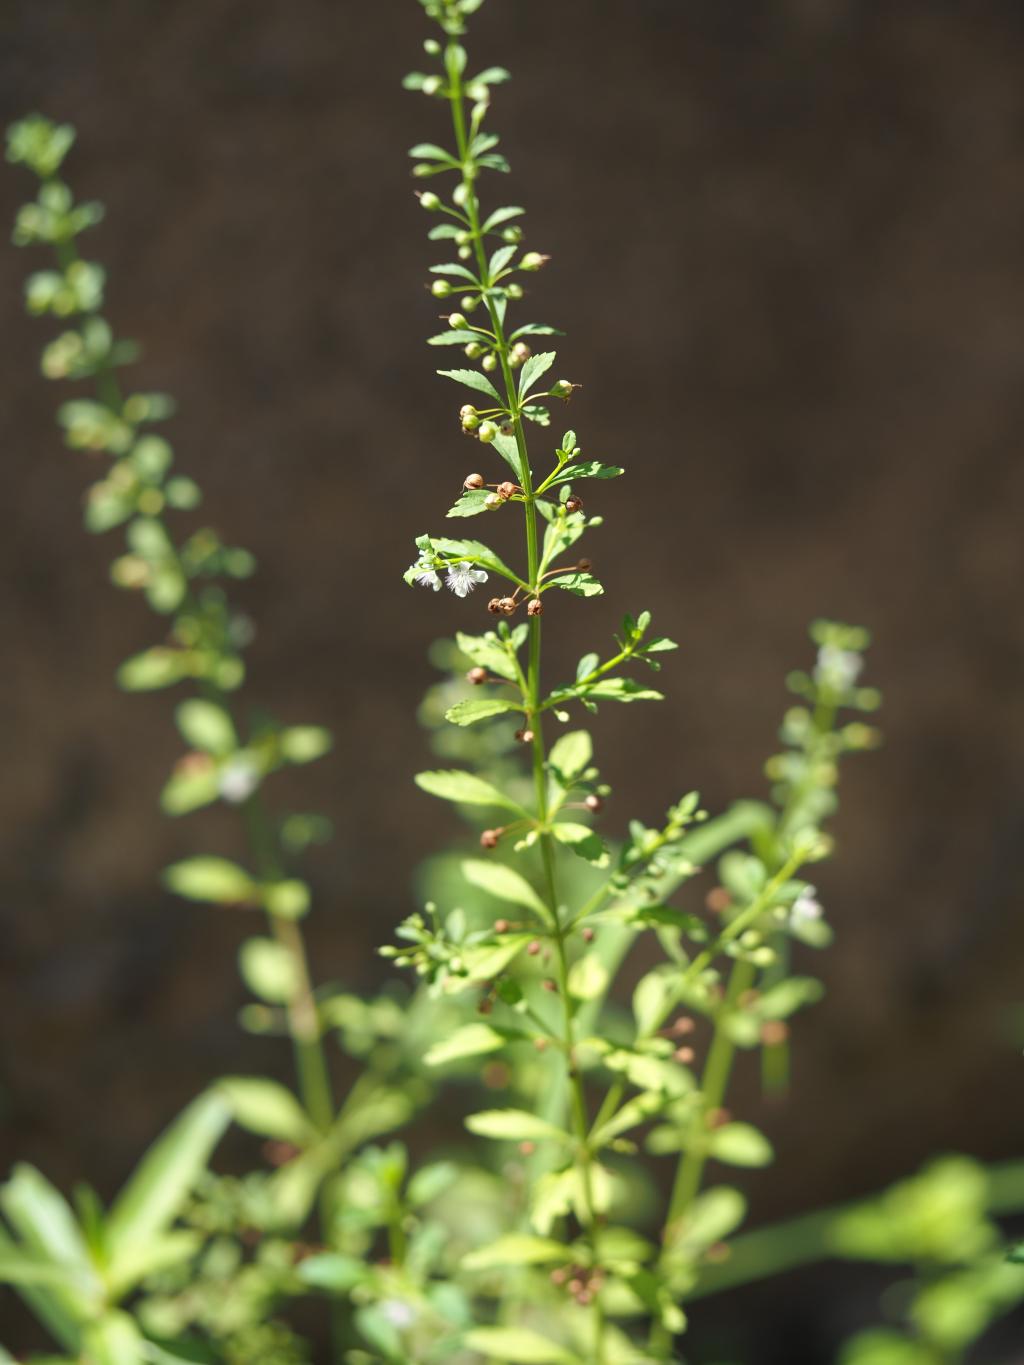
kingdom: Plantae
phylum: Tracheophyta
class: Magnoliopsida
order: Lamiales
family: Plantaginaceae
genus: Scoparia
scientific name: Scoparia dulcis
